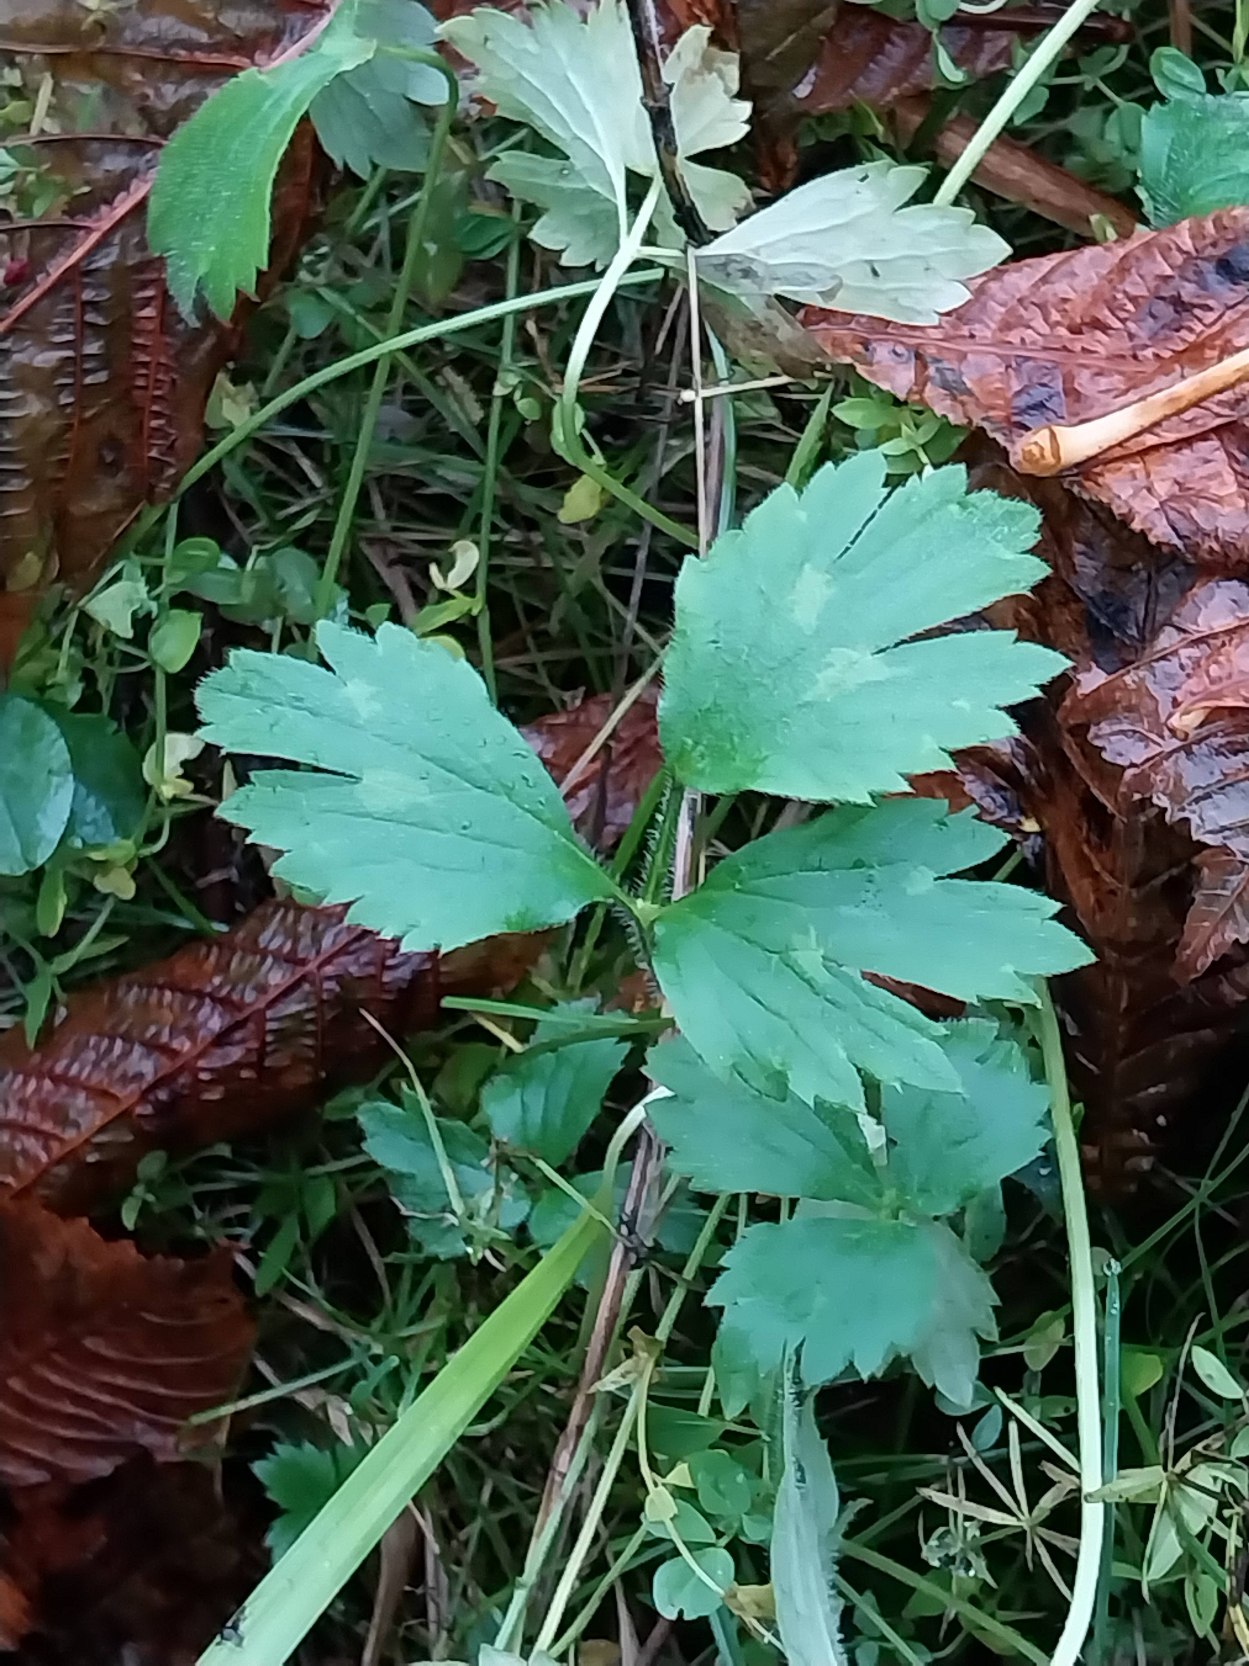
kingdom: Plantae
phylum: Tracheophyta
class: Magnoliopsida
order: Ranunculales
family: Ranunculaceae
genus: Ranunculus
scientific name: Ranunculus repens
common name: Lav ranunkel
